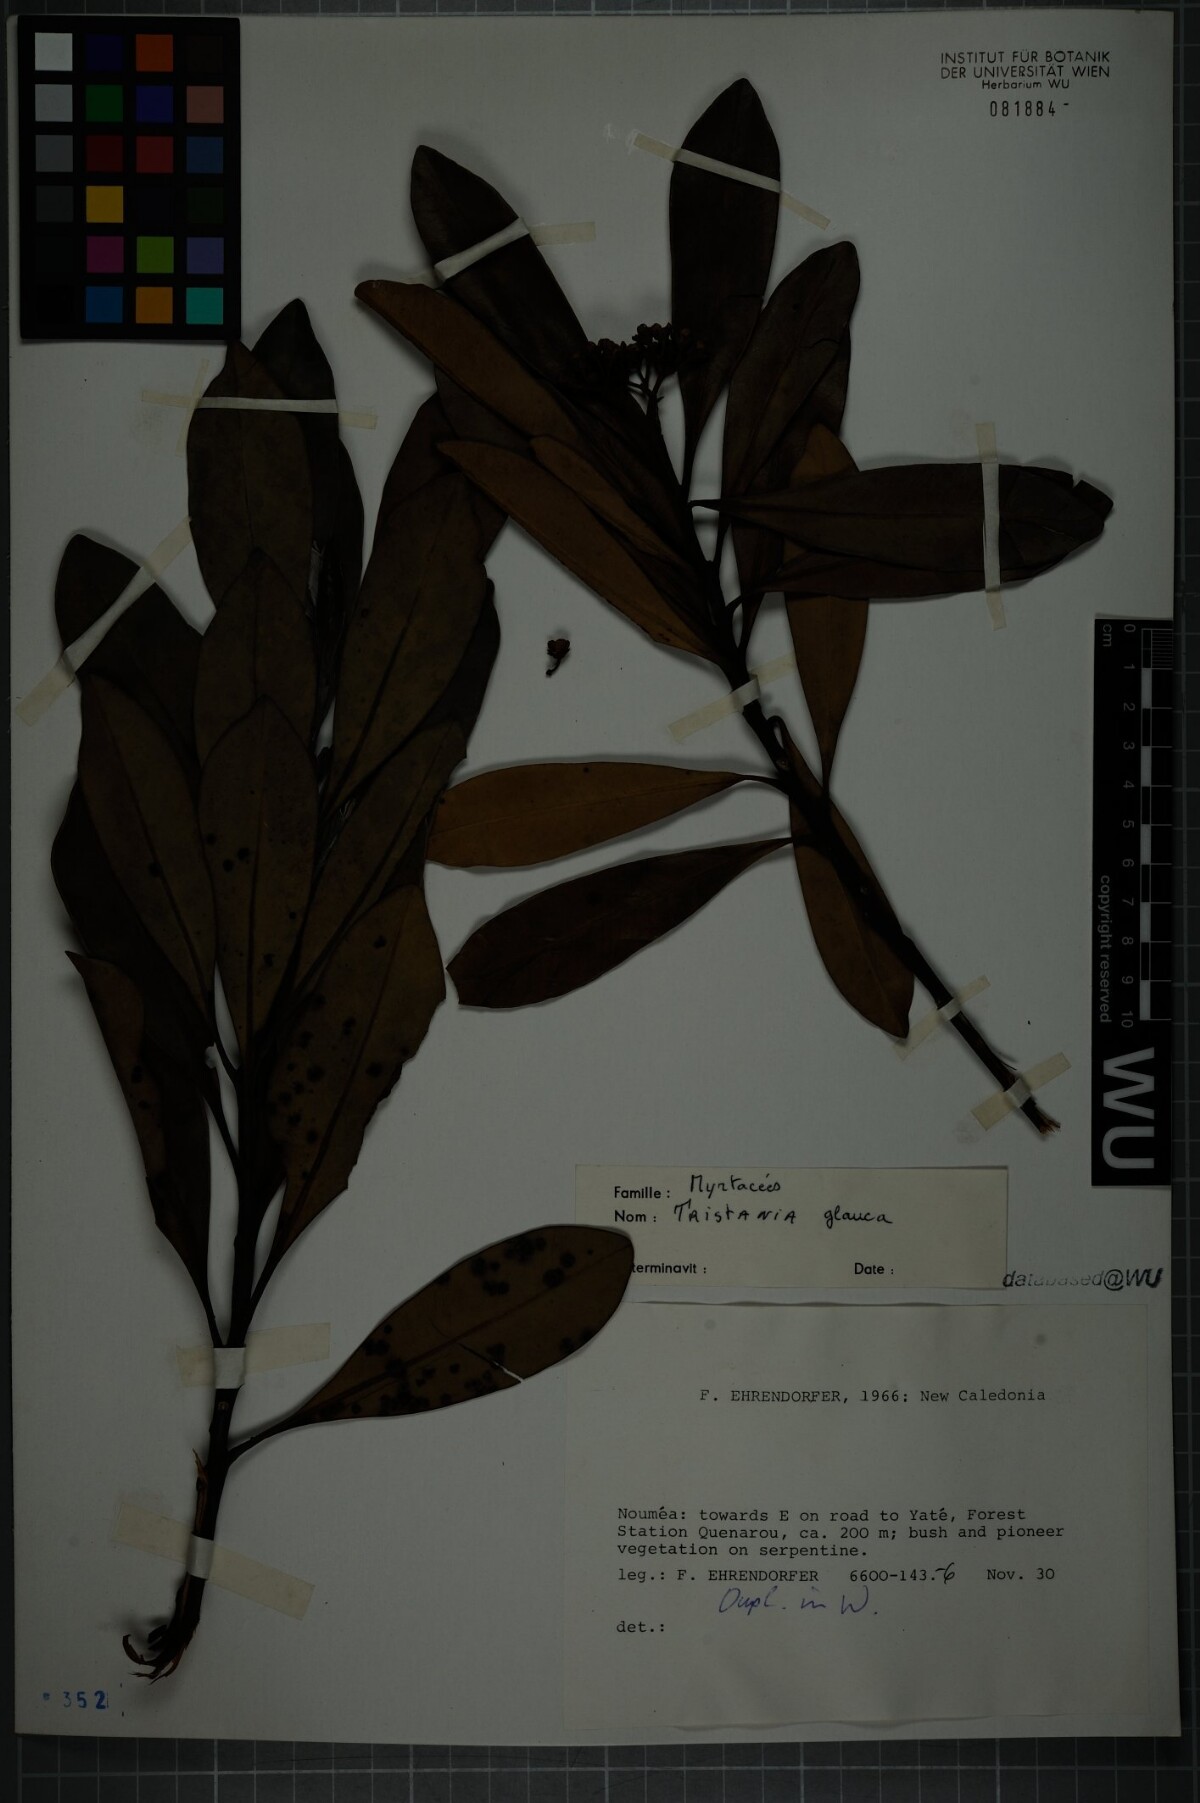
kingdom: Plantae
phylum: Tracheophyta
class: Magnoliopsida
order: Myrtales
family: Myrtaceae
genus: Tristaniopsis
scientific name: Tristaniopsis glauca
